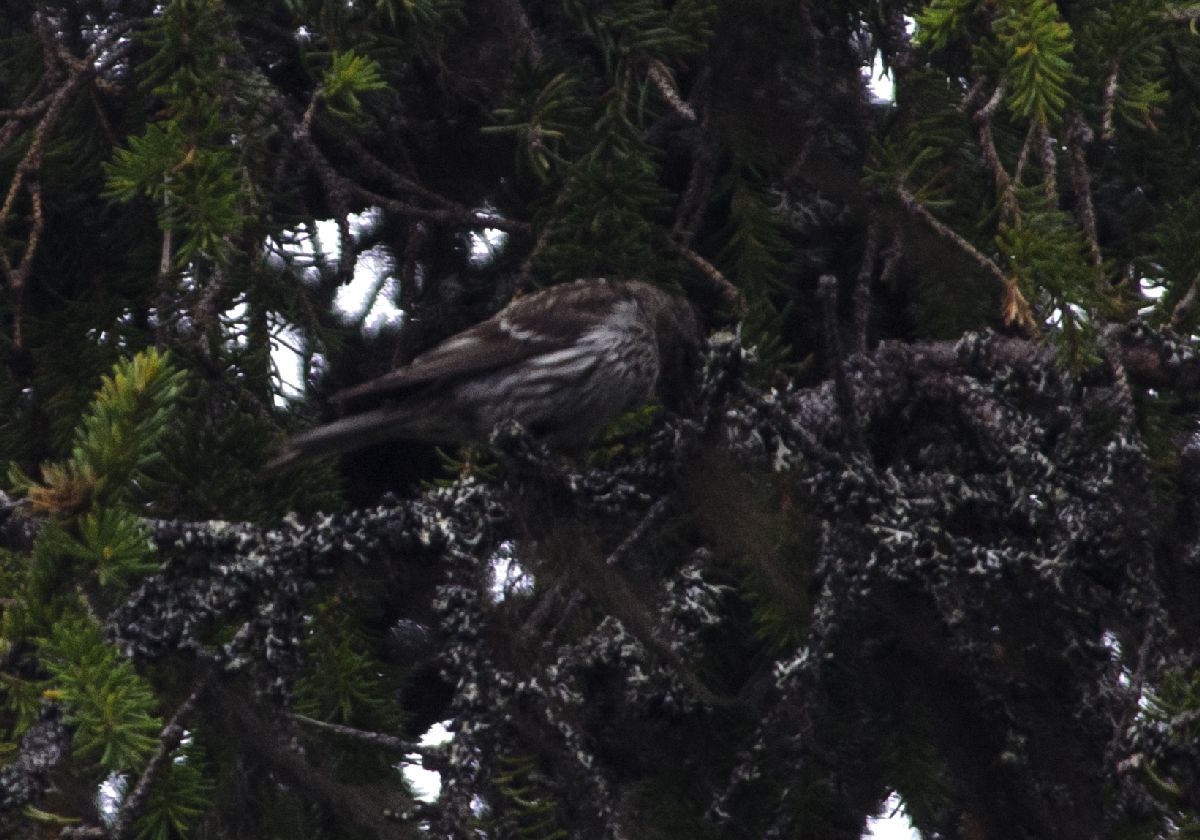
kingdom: Animalia
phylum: Chordata
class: Aves
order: Passeriformes
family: Fringillidae
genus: Acanthis
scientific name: Acanthis flammea
